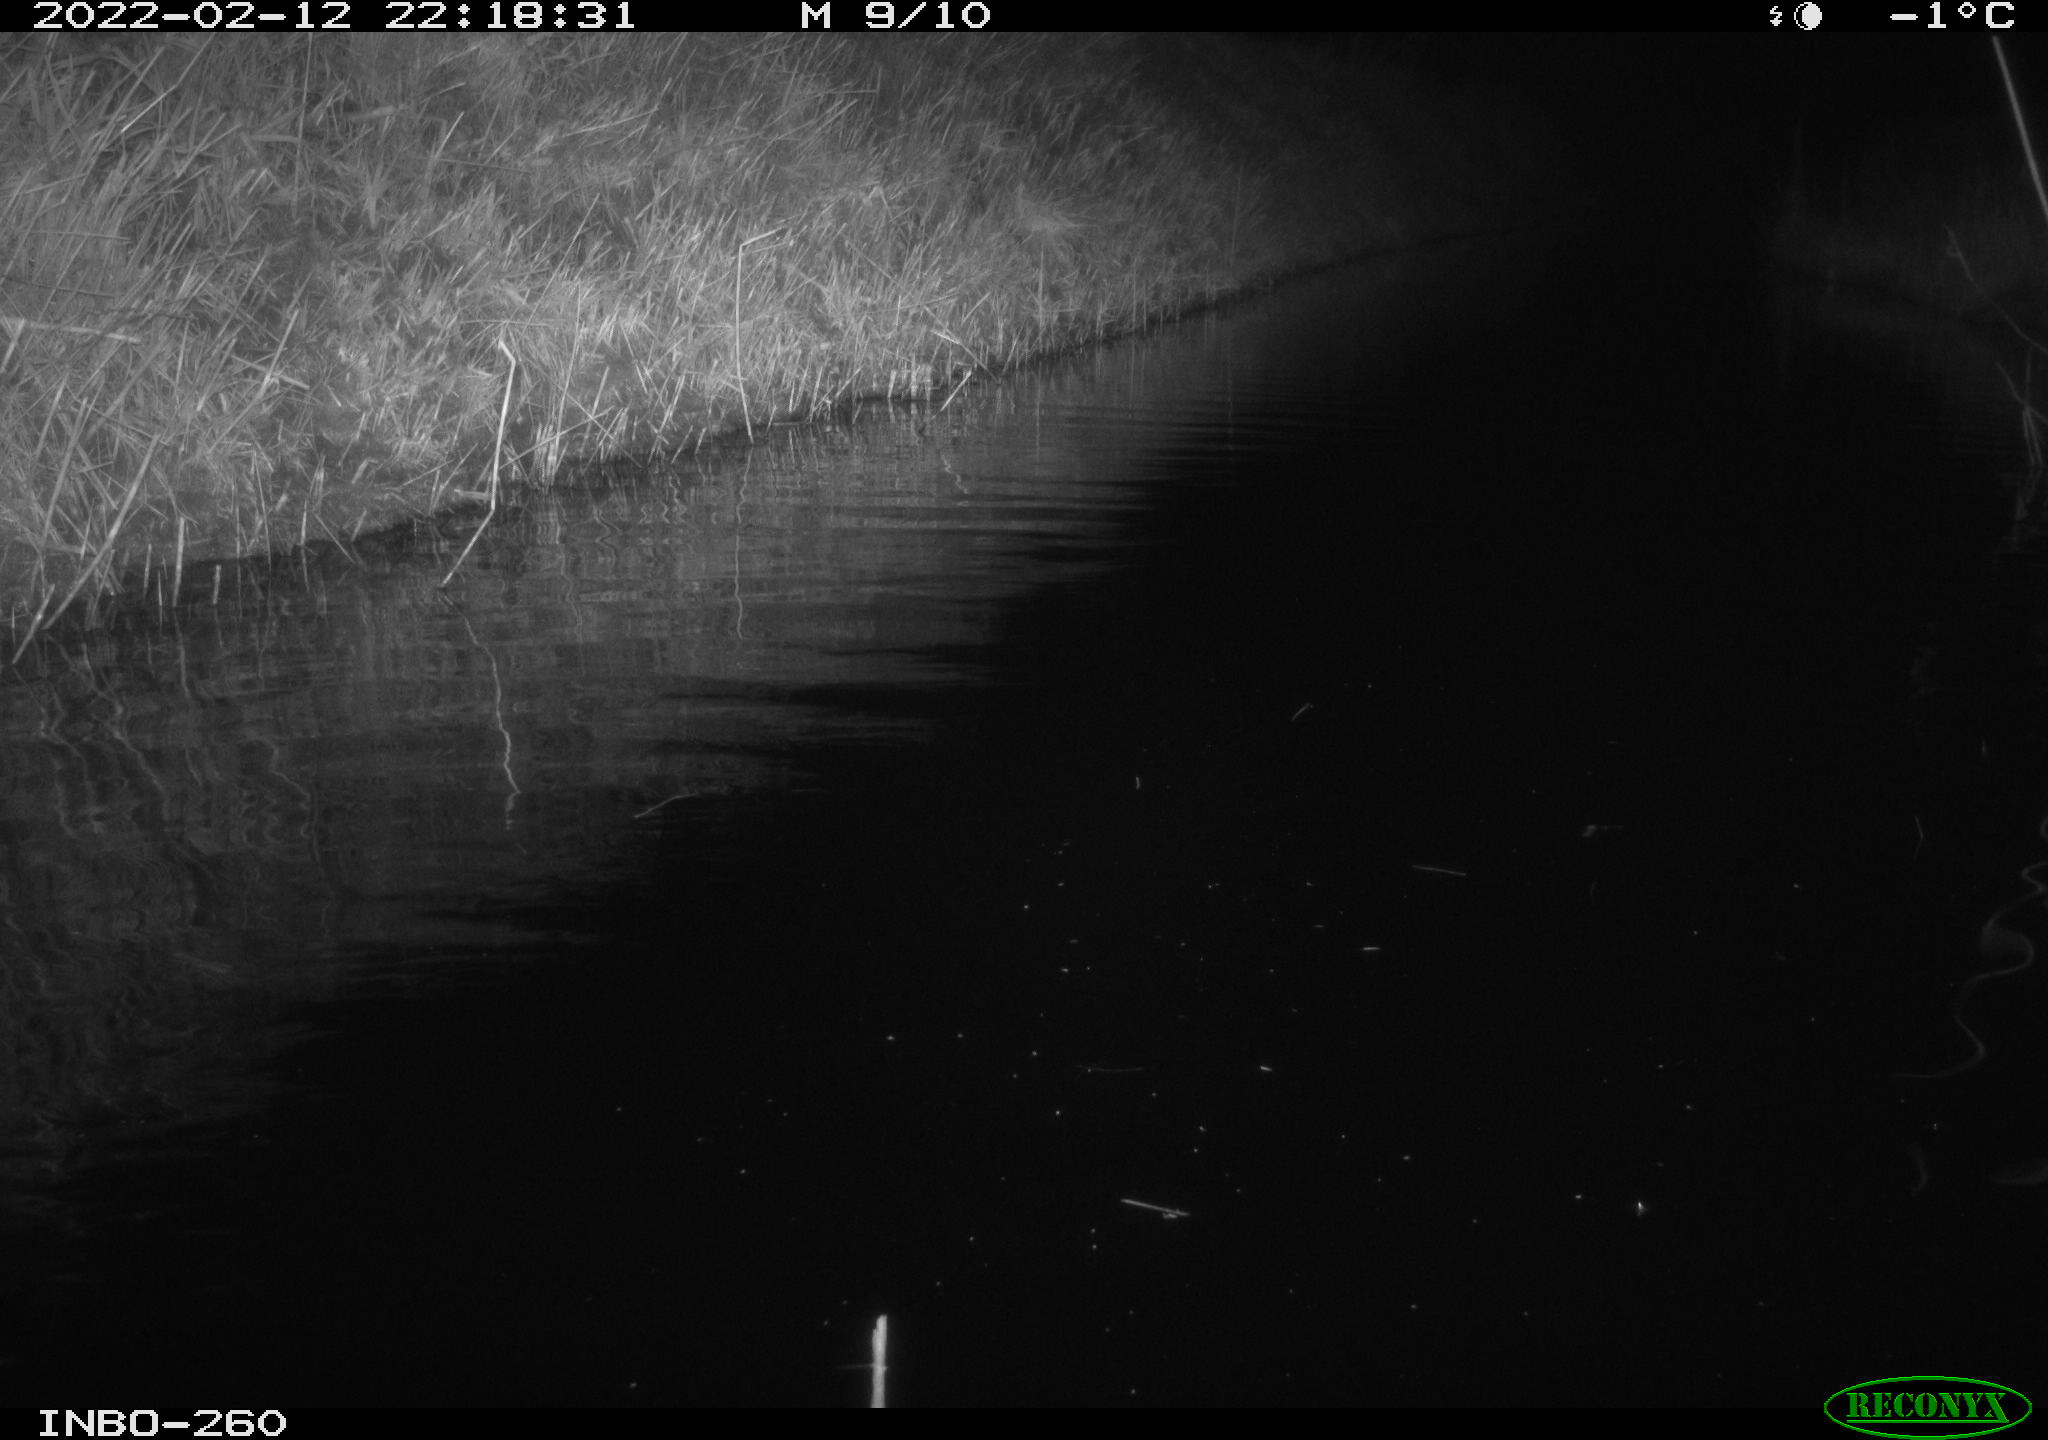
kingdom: Animalia
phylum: Chordata
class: Mammalia
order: Rodentia
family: Cricetidae
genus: Ondatra
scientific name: Ondatra zibethicus
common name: Muskrat
